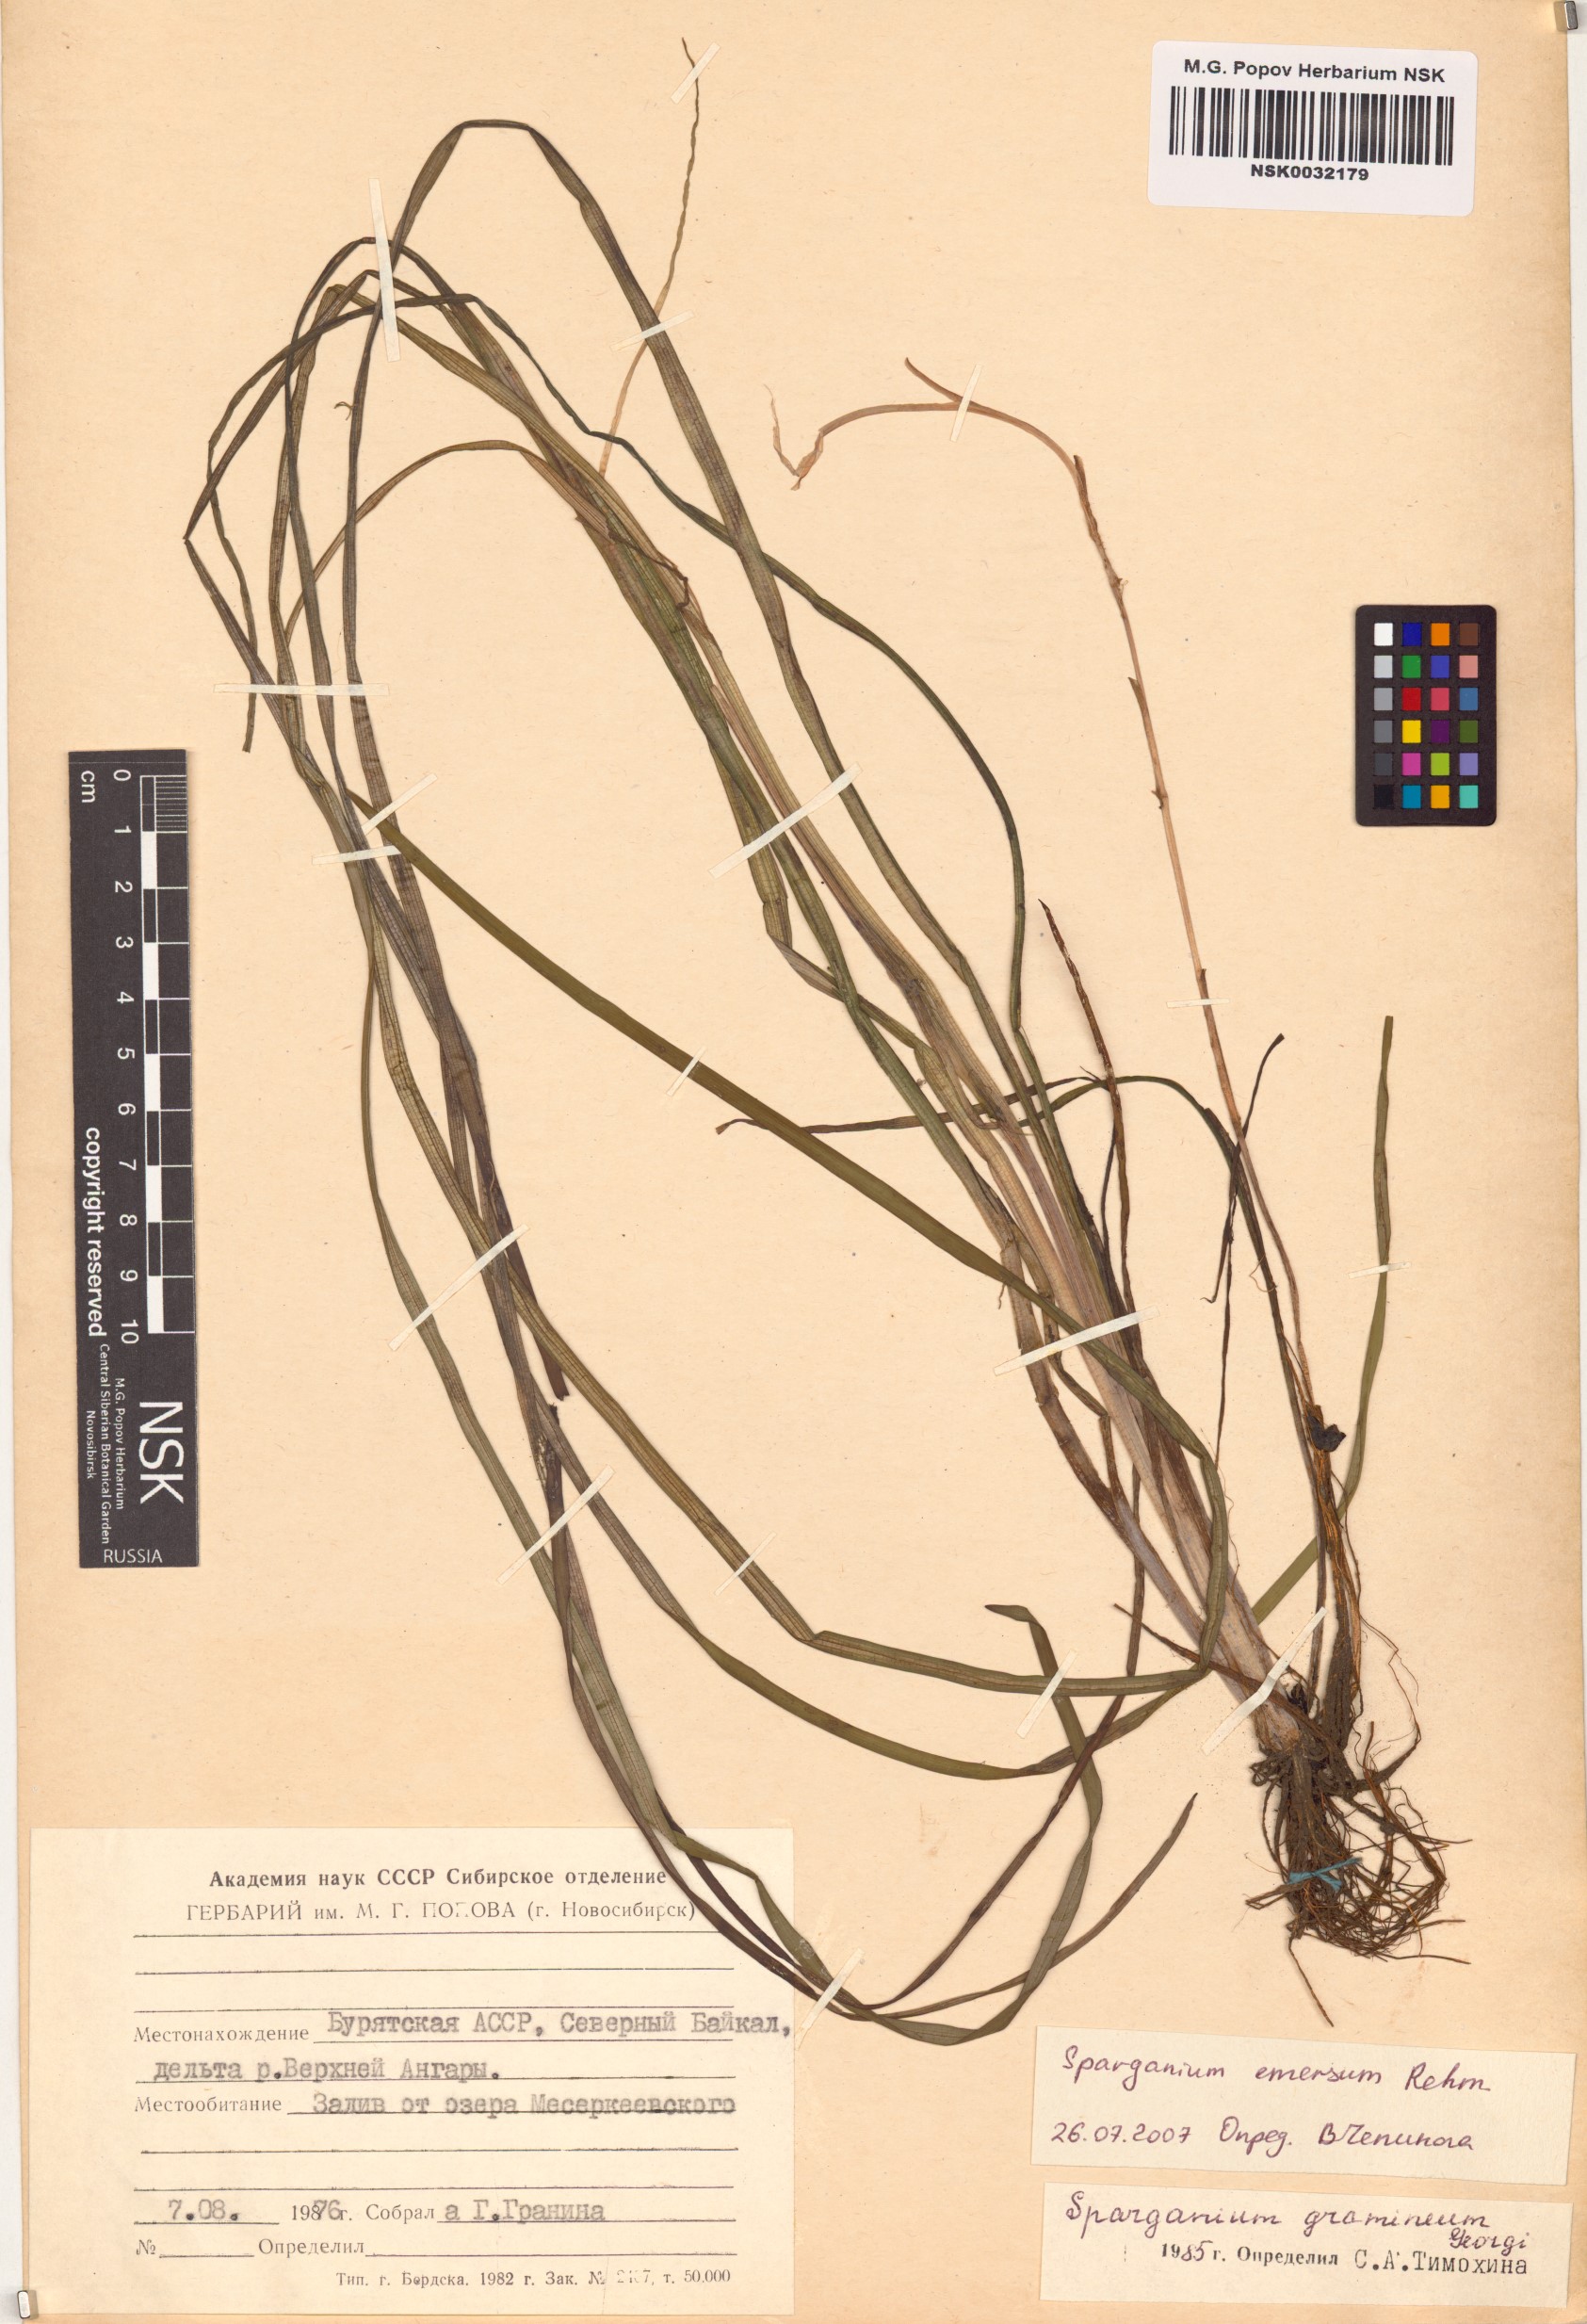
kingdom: Plantae
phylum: Tracheophyta
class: Liliopsida
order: Poales
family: Typhaceae
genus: Sparganium
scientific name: Sparganium emersum
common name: Unbranched bur-reed
